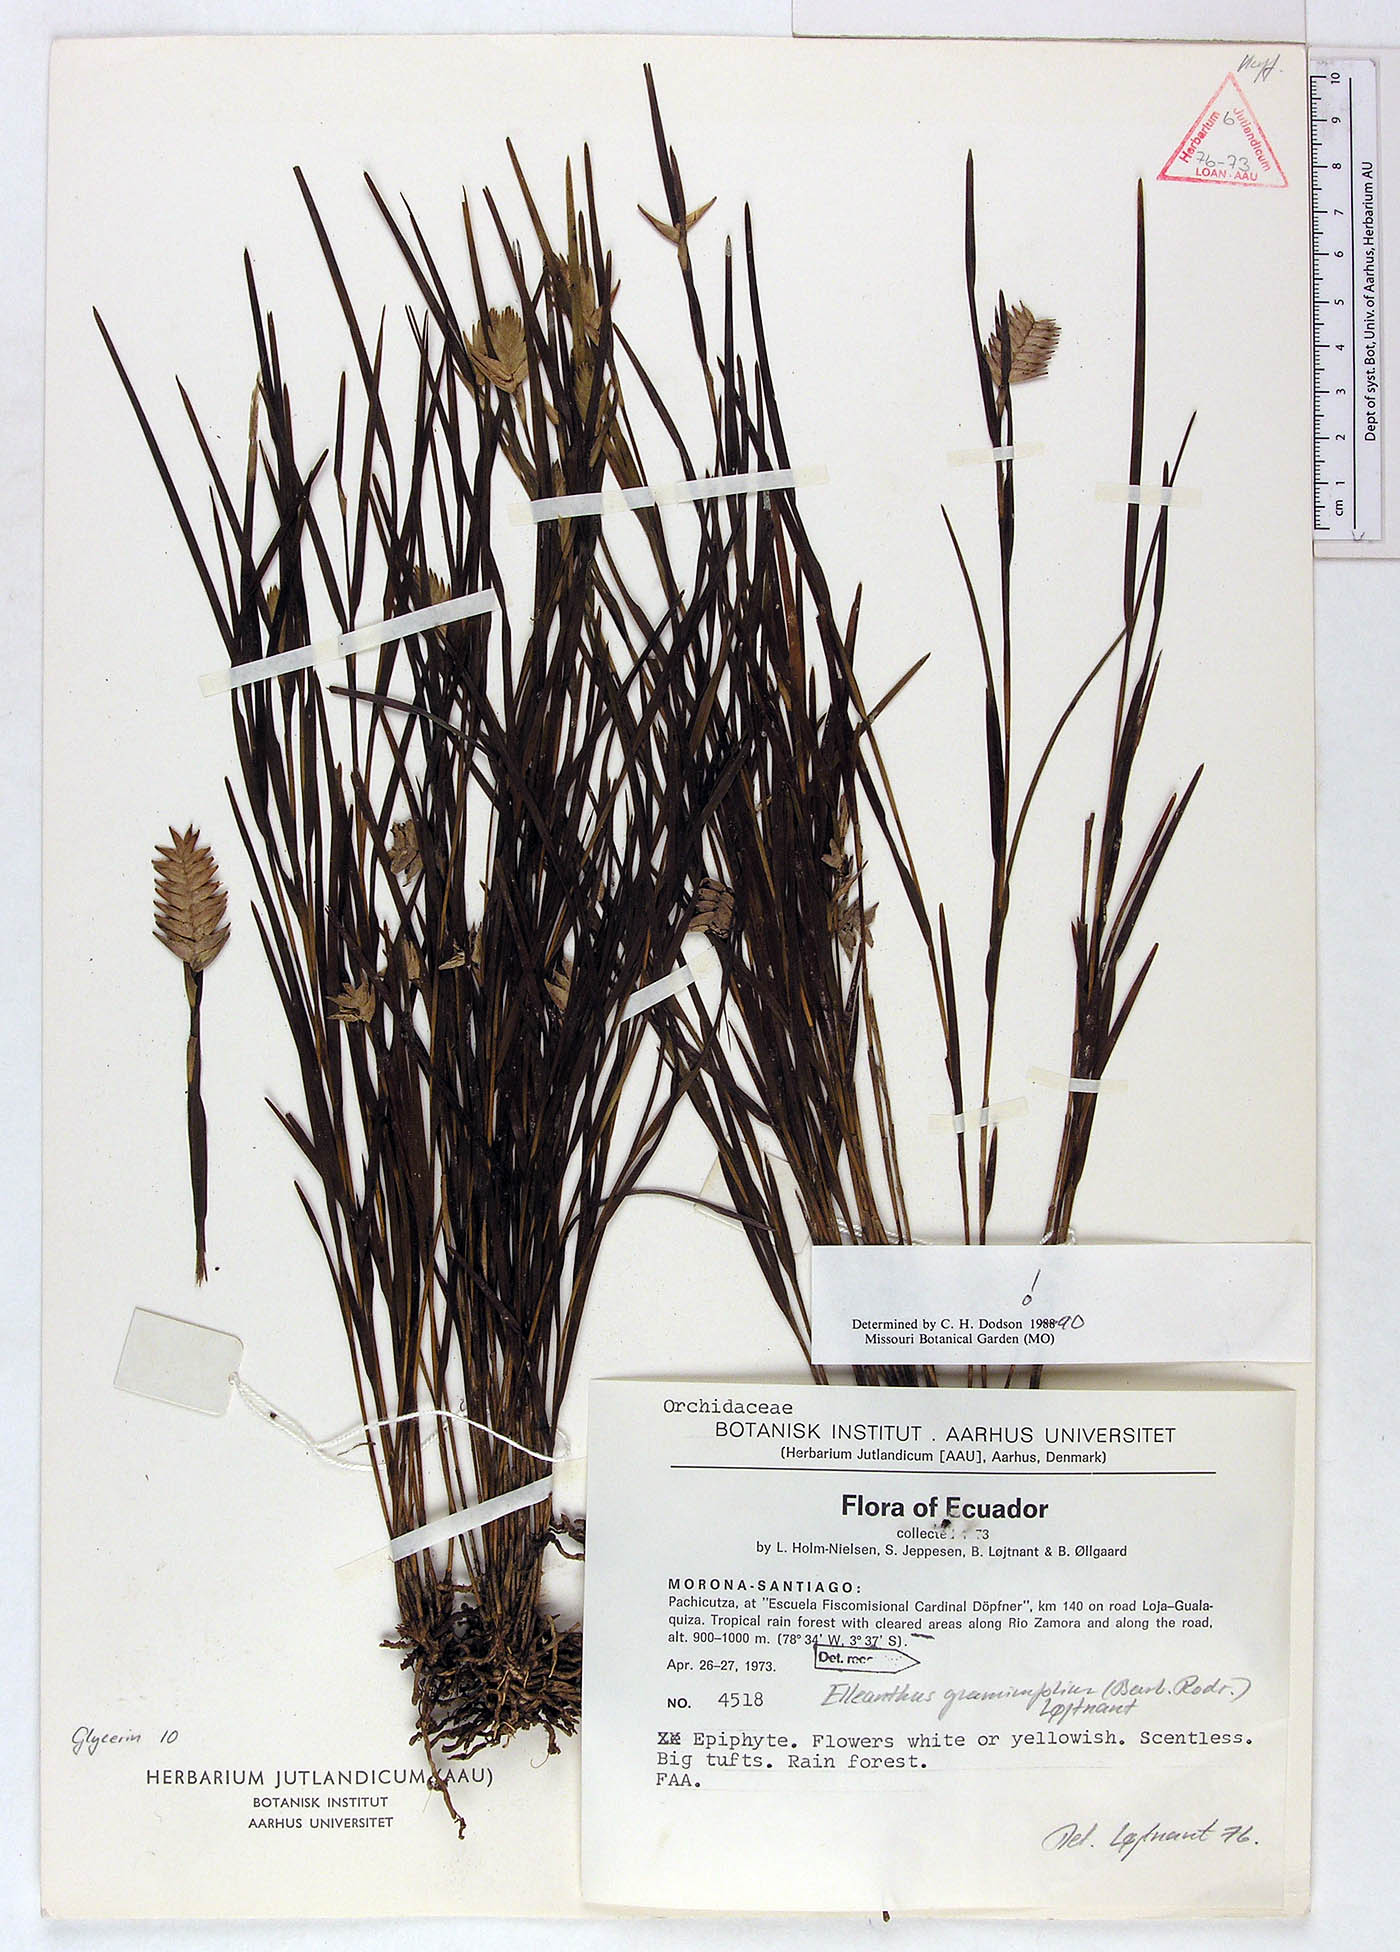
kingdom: Plantae
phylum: Tracheophyta
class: Liliopsida
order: Asparagales
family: Orchidaceae
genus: Elleanthus
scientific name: Elleanthus graminifolius
